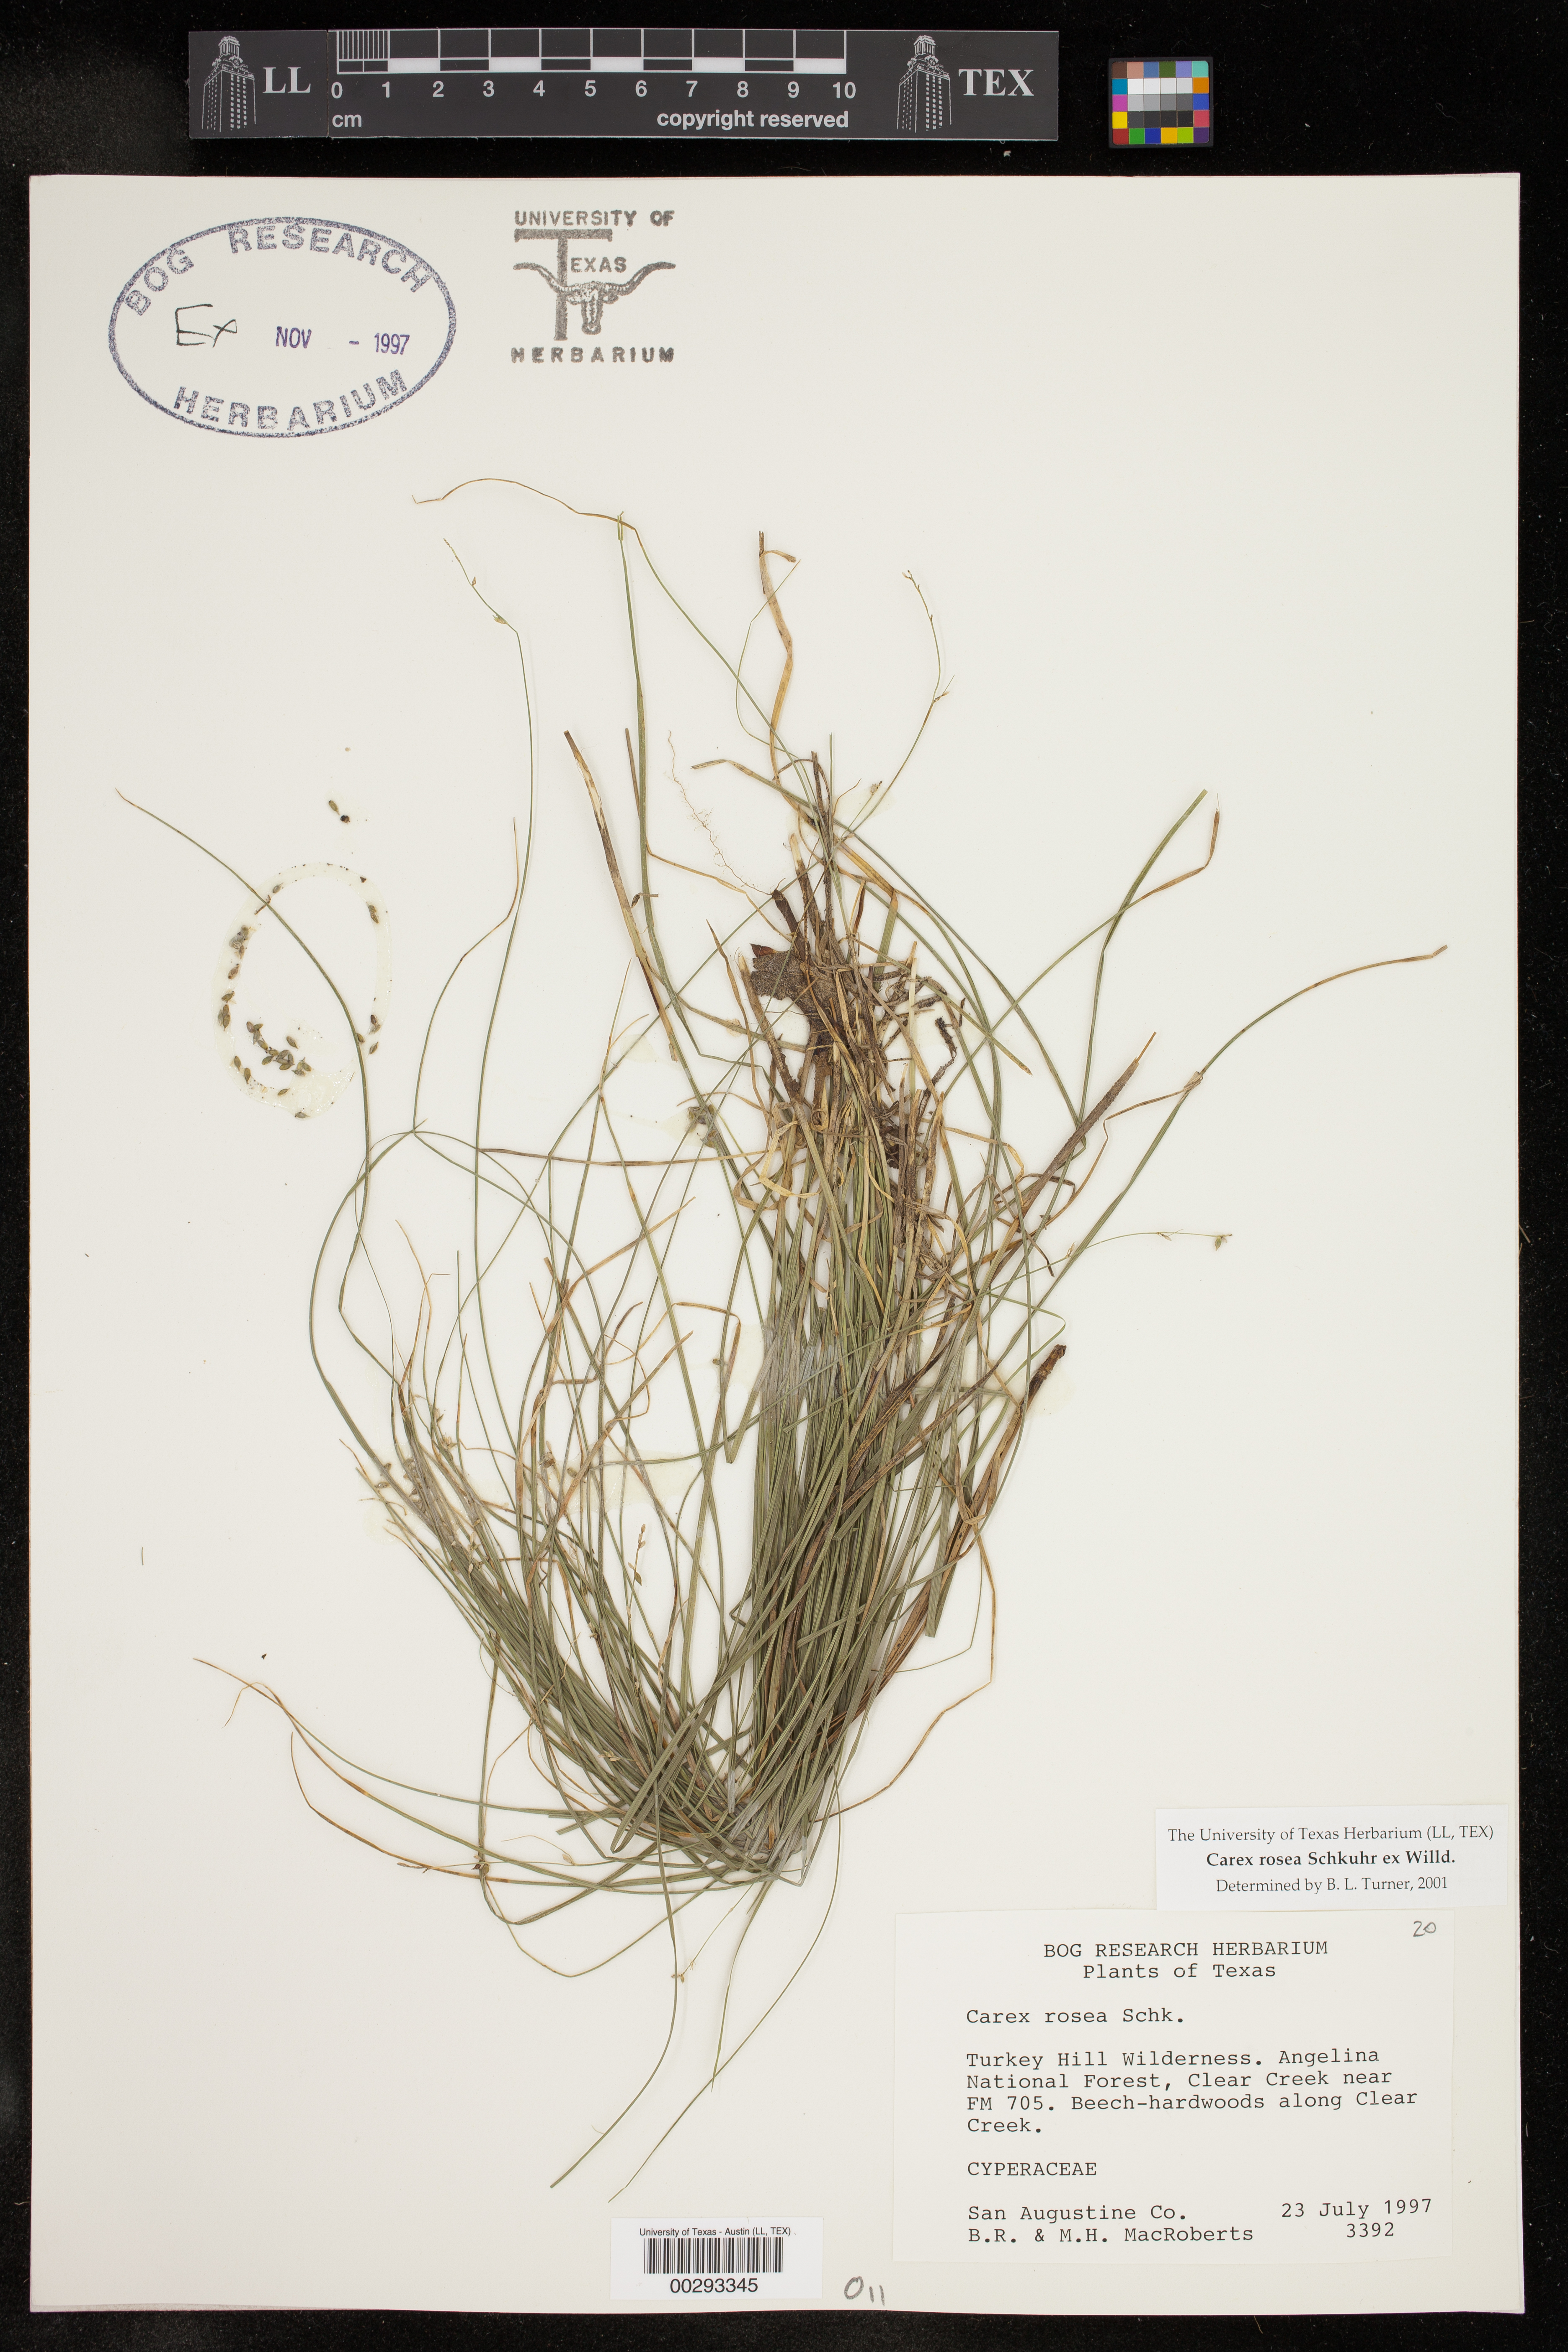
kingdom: Plantae
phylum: Tracheophyta
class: Liliopsida
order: Poales
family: Cyperaceae
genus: Carex
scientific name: Carex rosea
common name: Curly-styled wood sedge
